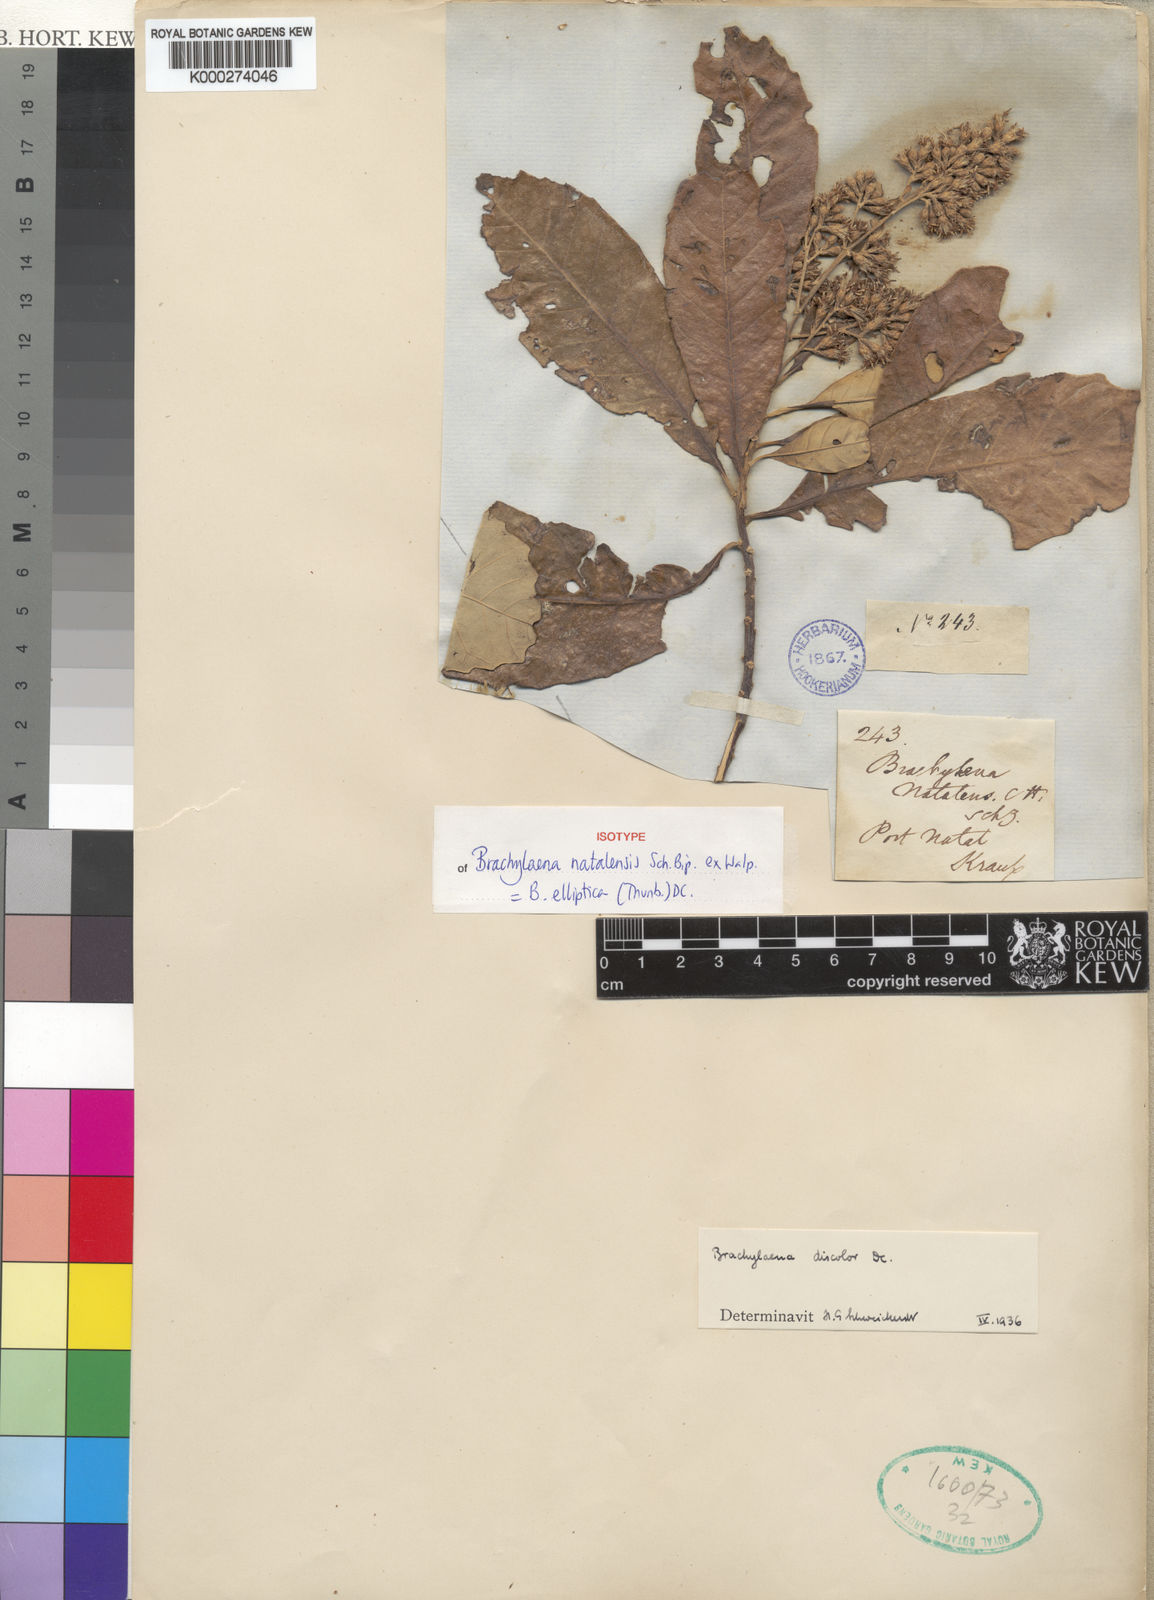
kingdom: Plantae
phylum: Tracheophyta
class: Magnoliopsida
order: Asterales
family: Asteraceae
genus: Brachylaena
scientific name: Brachylaena elliptica
